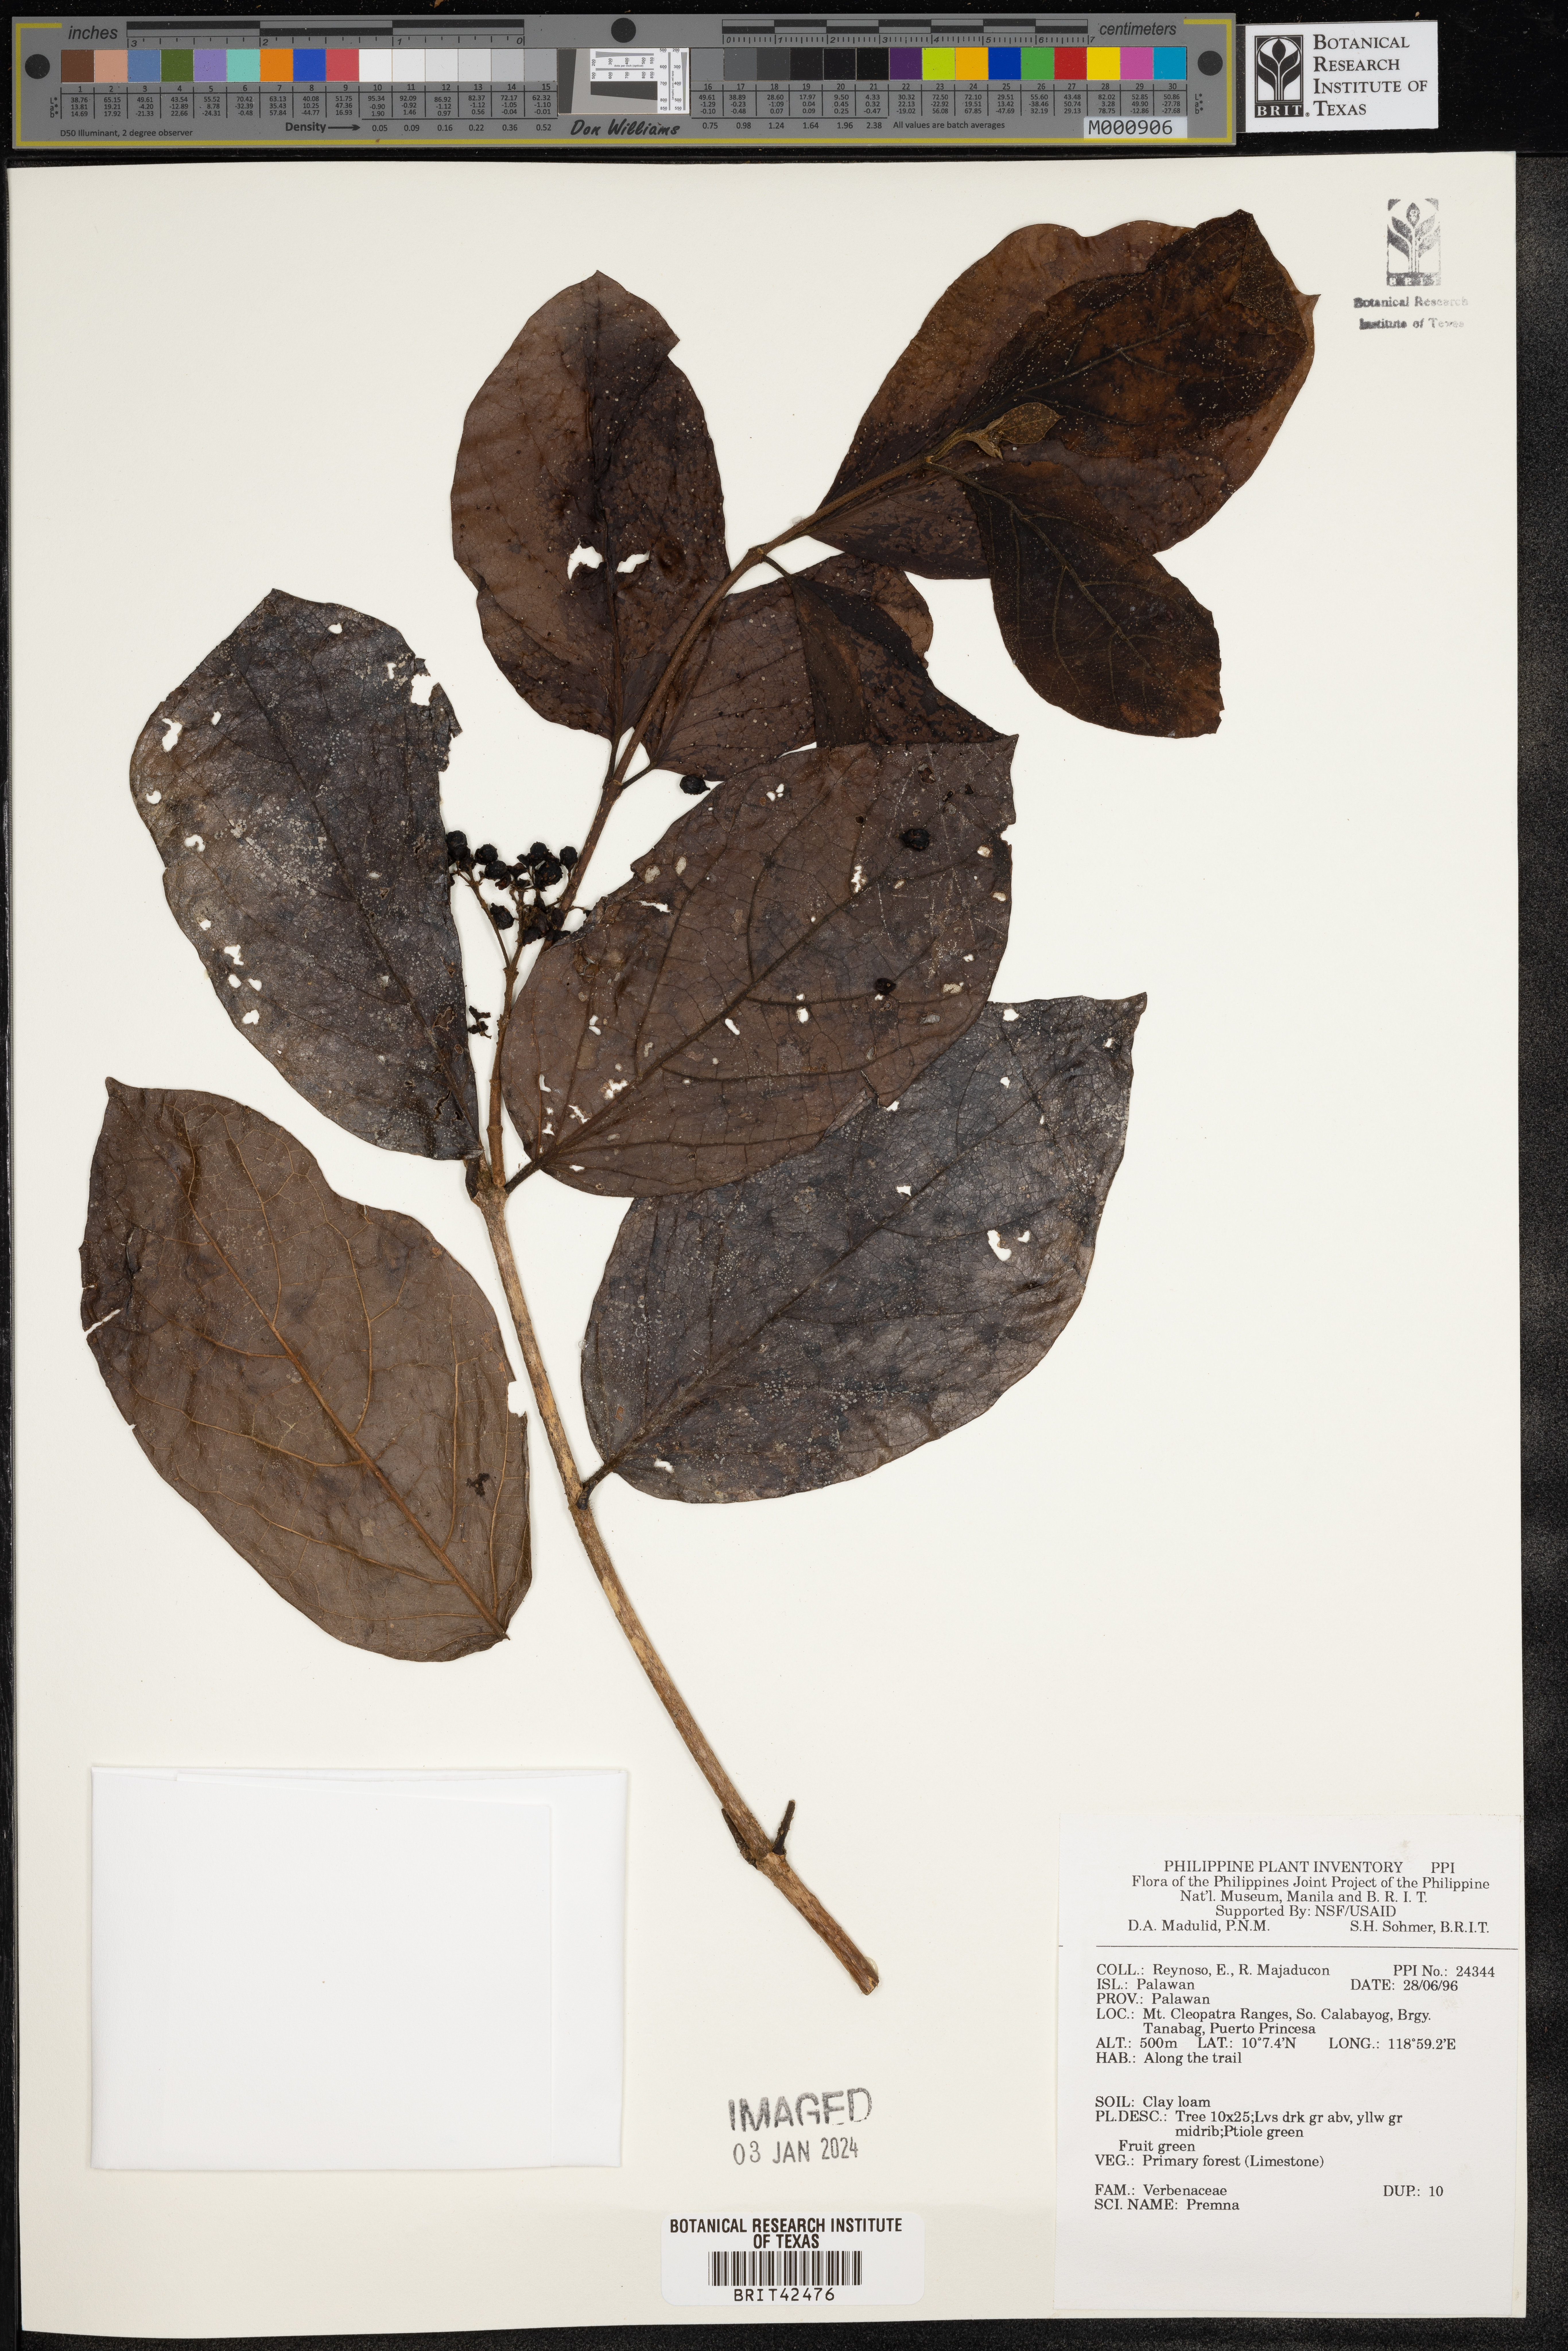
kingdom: Plantae
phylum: Tracheophyta
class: Magnoliopsida
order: Rosales
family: Rosaceae
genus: Prunus
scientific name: Prunus
